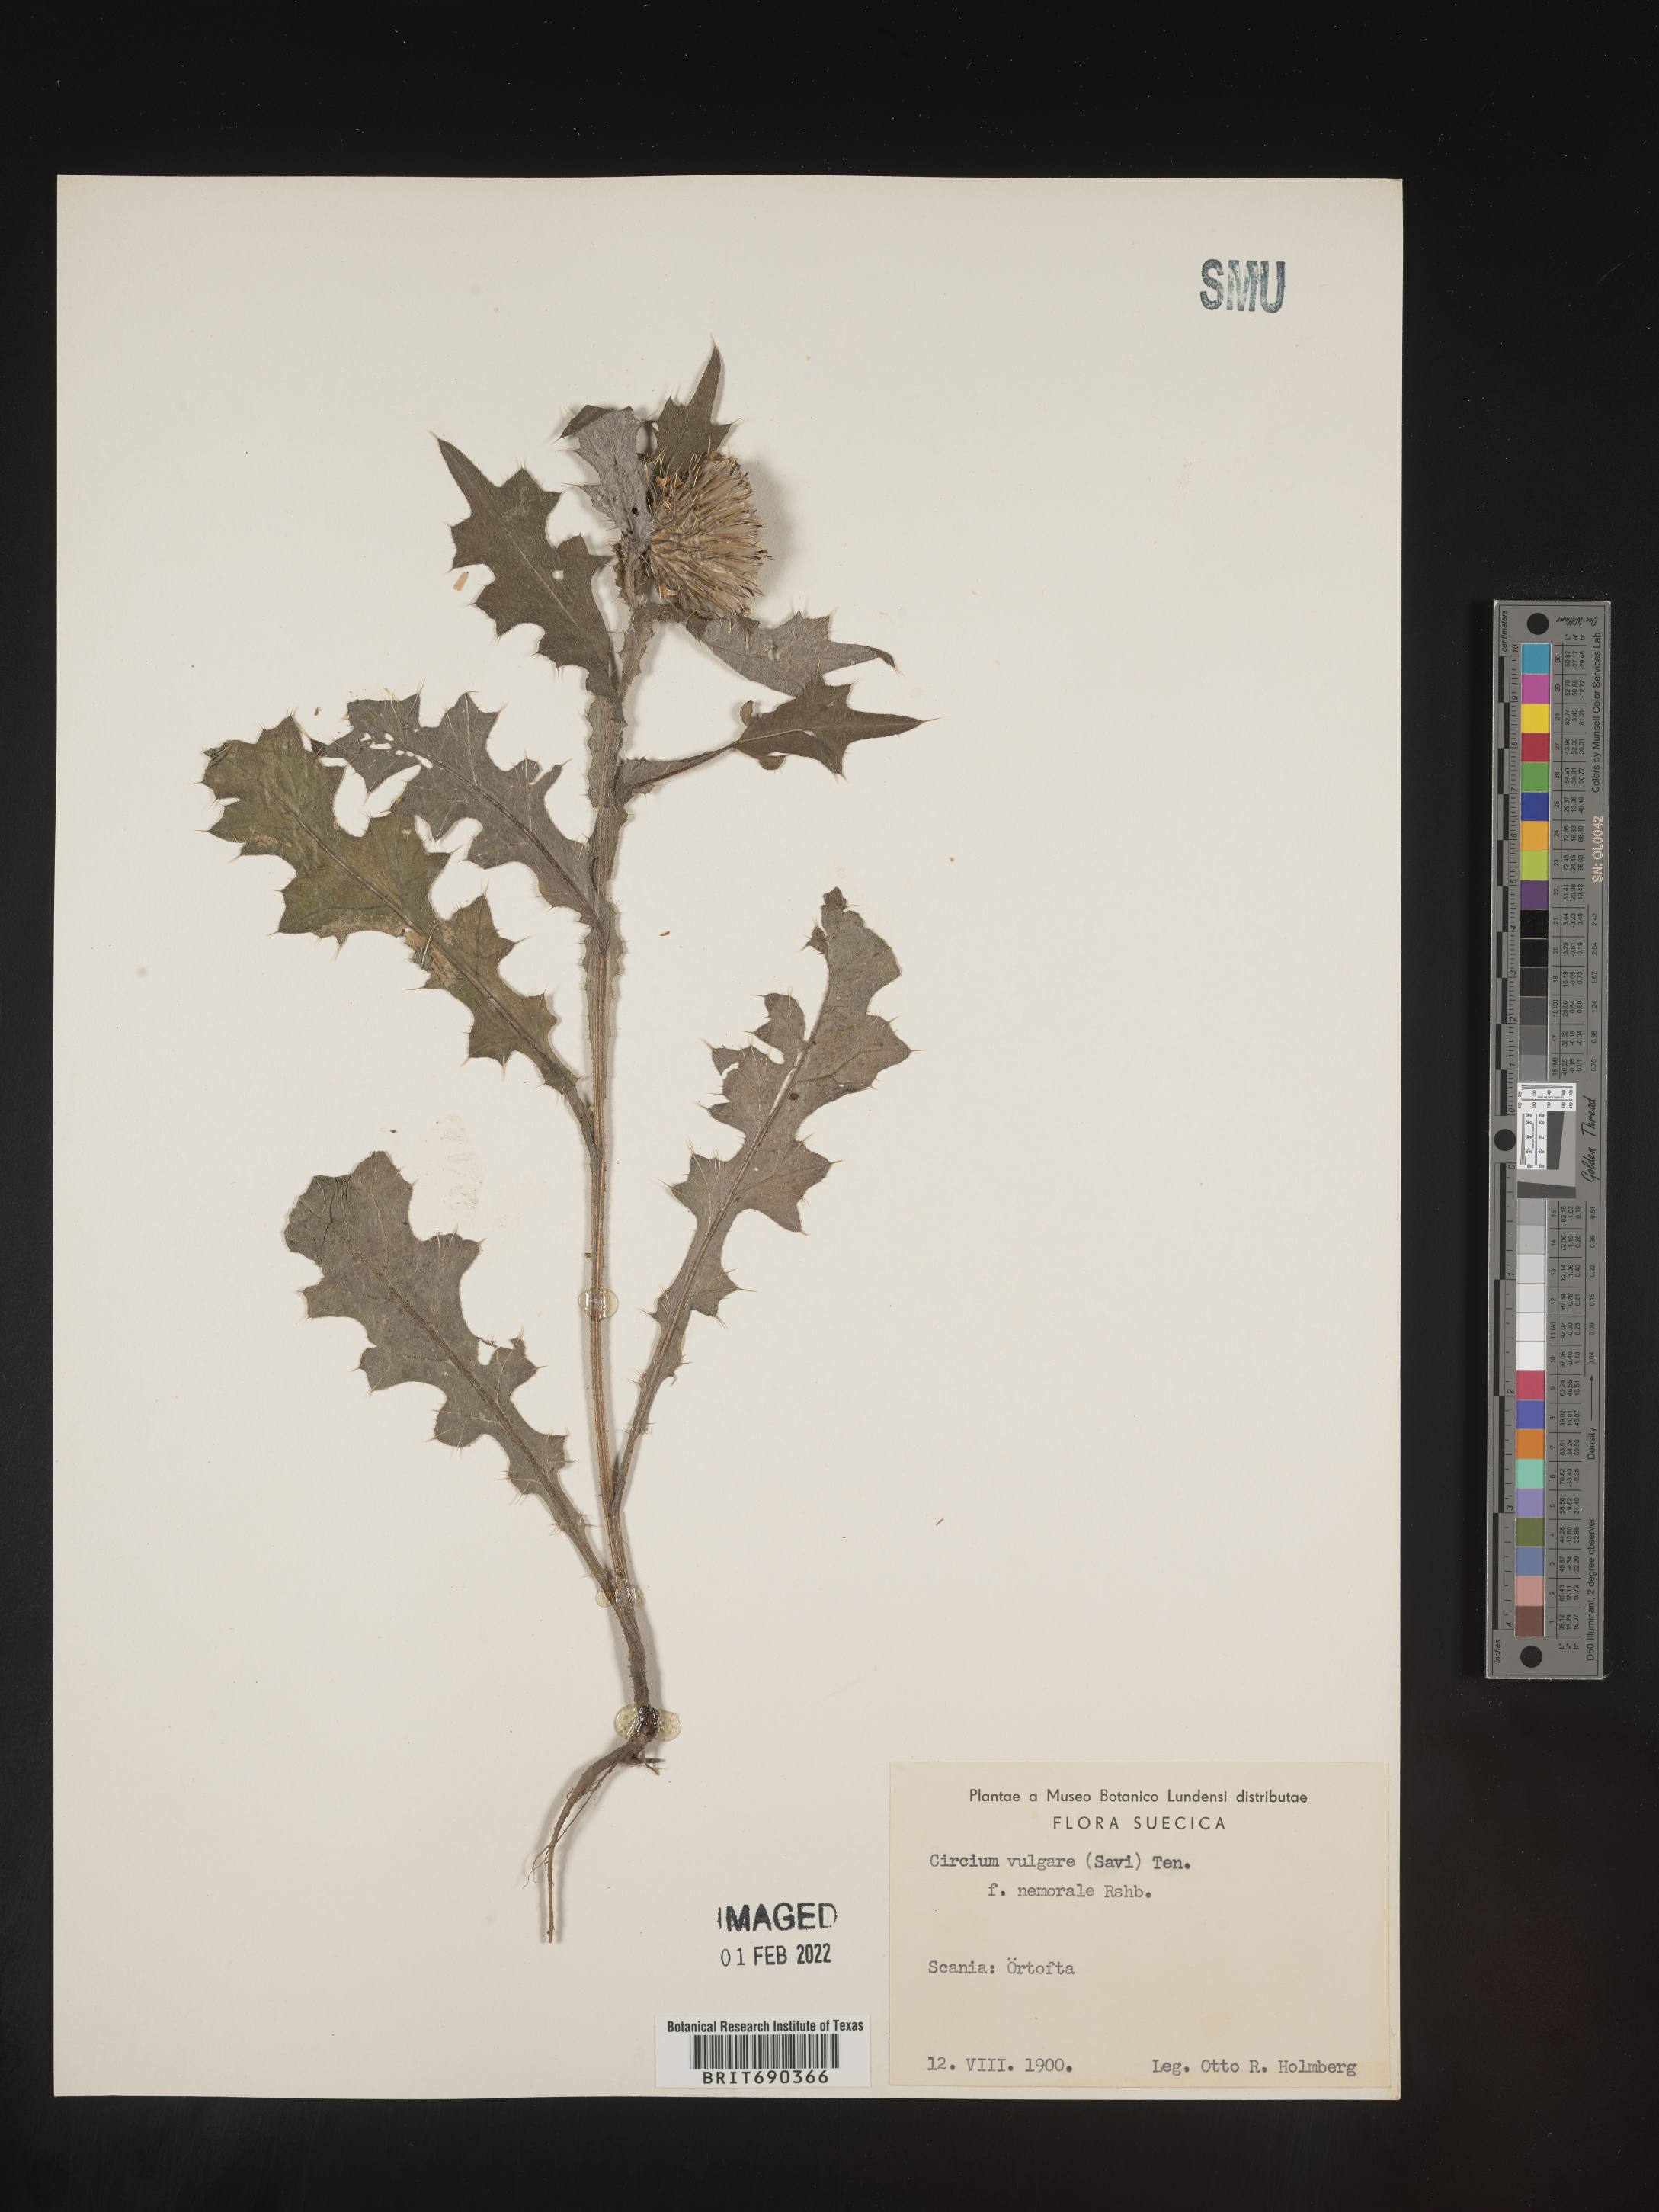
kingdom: Plantae
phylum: Tracheophyta
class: Magnoliopsida
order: Asterales
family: Asteraceae
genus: Cirsium
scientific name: Cirsium
